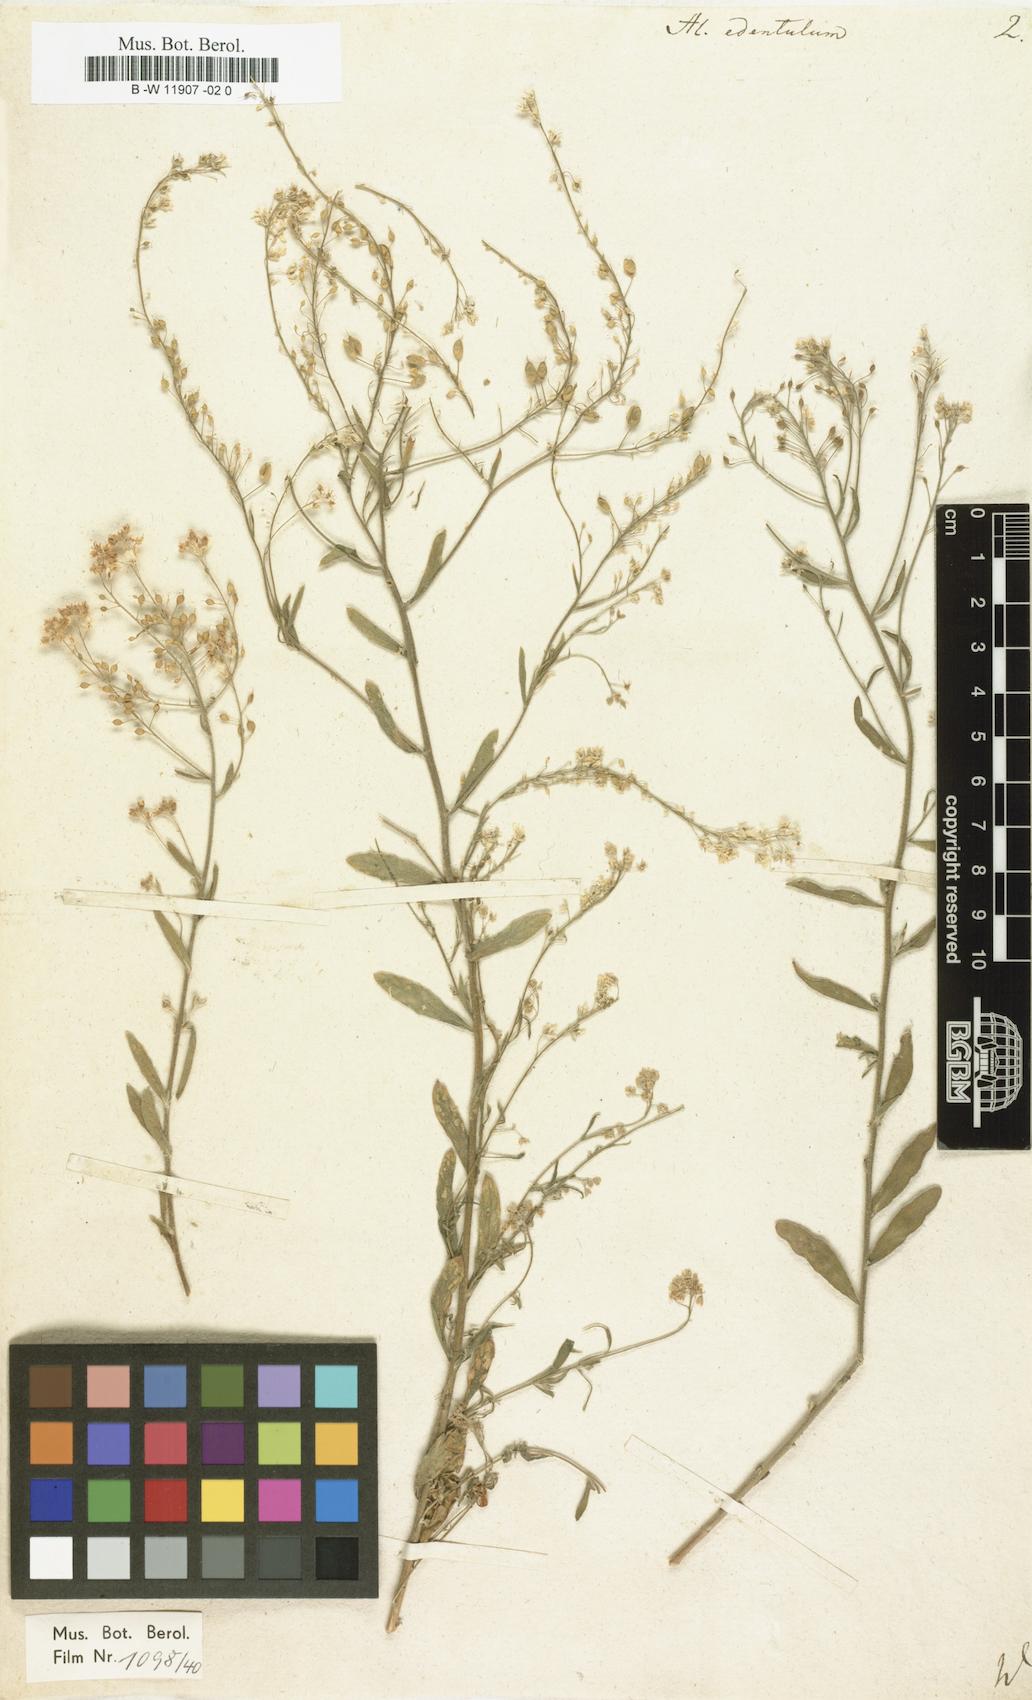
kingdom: Plantae
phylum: Tracheophyta
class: Magnoliopsida
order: Brassicales
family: Brassicaceae
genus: Aurinia
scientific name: Aurinia petraea
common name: Goldentuft
